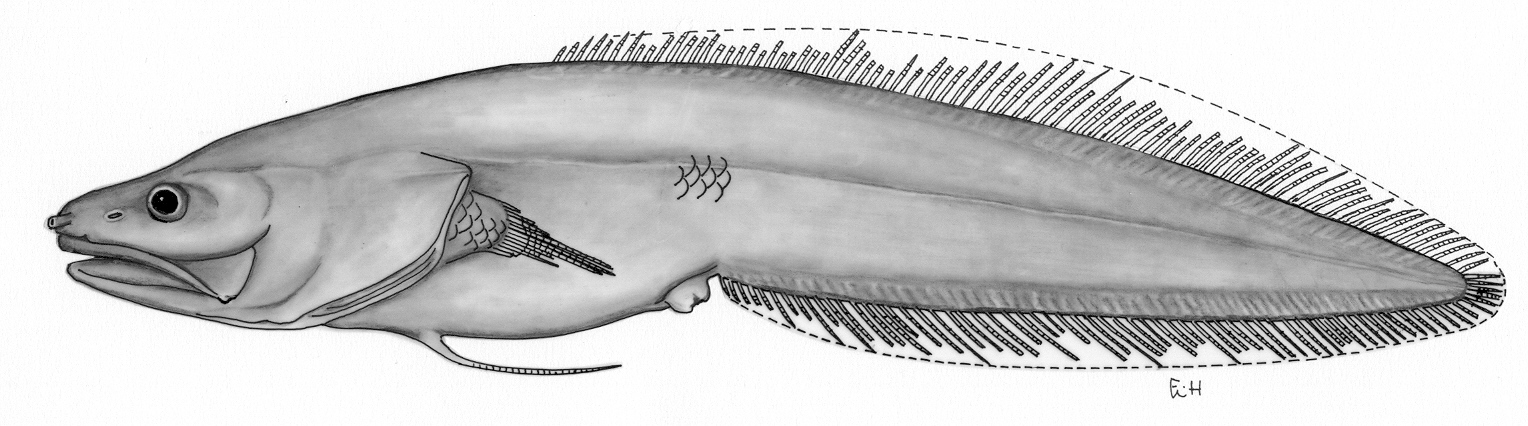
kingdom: Animalia
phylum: Chordata
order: Ophidiiformes
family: Bythitidae
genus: Microbrotula
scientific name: Microbrotula queenslandica
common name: Queensland cusk
